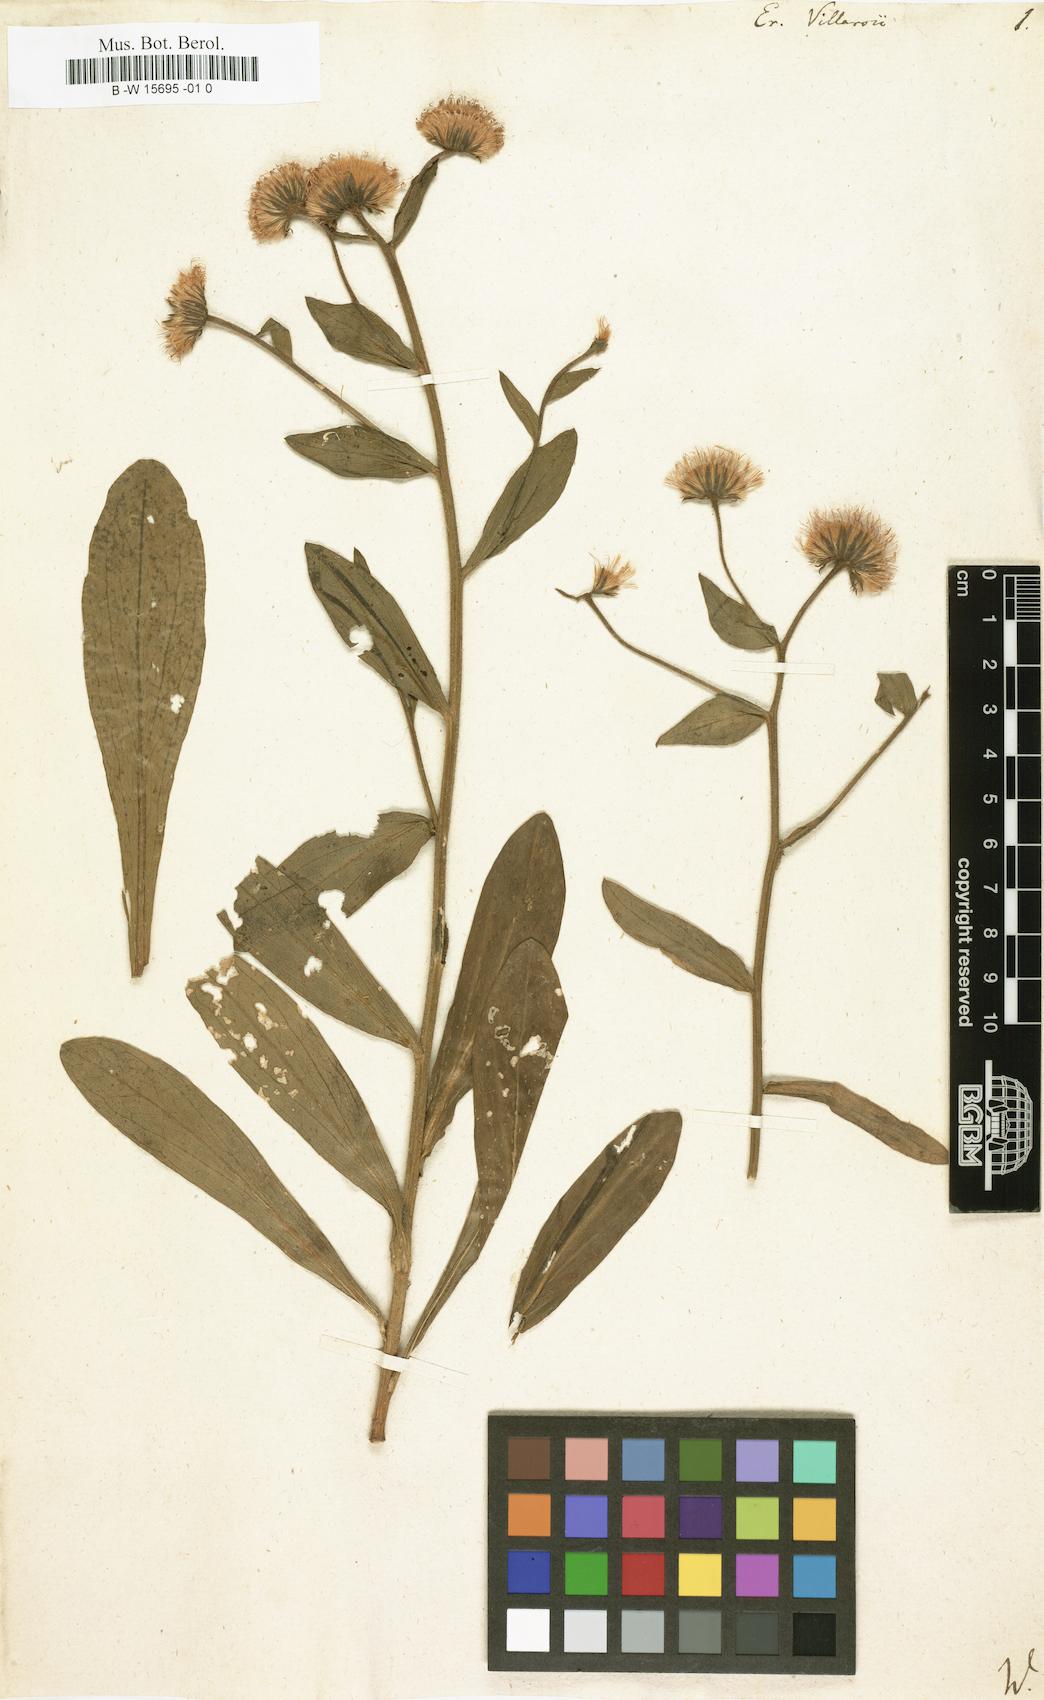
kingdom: Plantae
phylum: Tracheophyta
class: Magnoliopsida
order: Asterales
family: Asteraceae
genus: Erigeron
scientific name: Erigeron atticus
